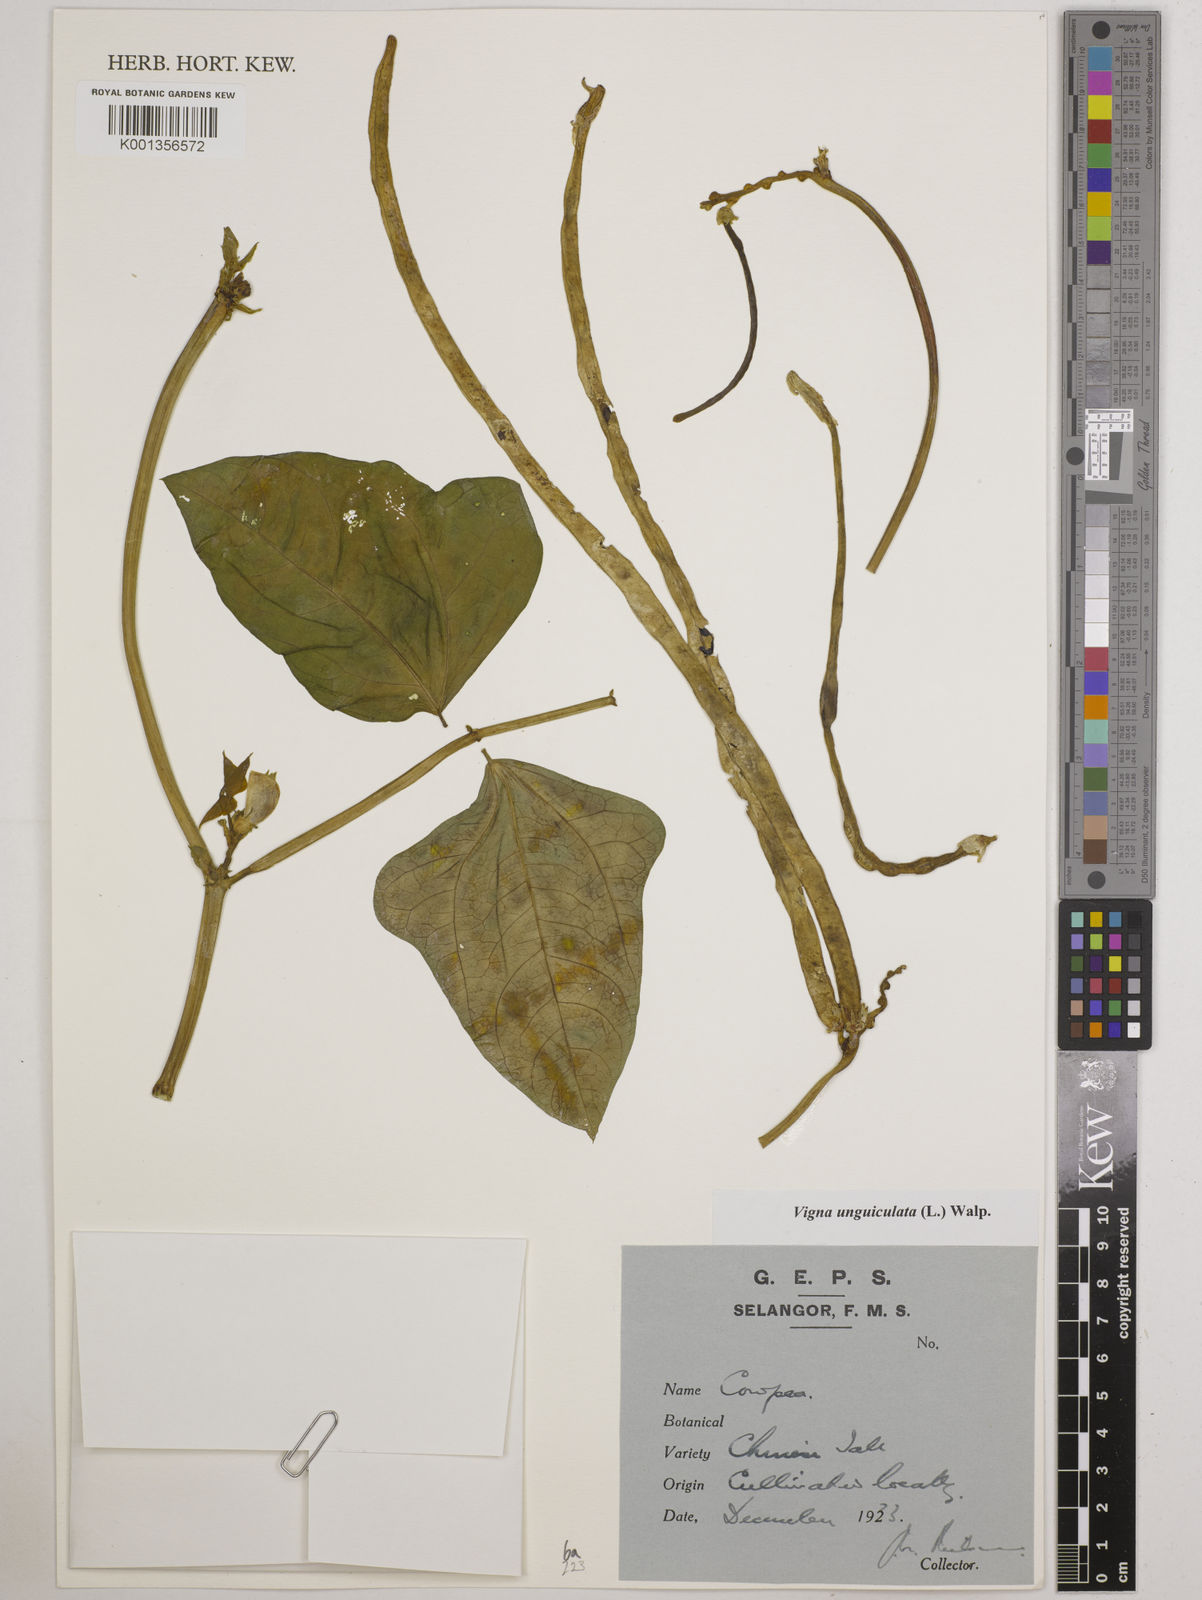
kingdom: Plantae
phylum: Tracheophyta
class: Magnoliopsida
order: Fabales
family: Fabaceae
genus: Vigna
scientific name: Vigna unguiculata
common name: Cowpea
